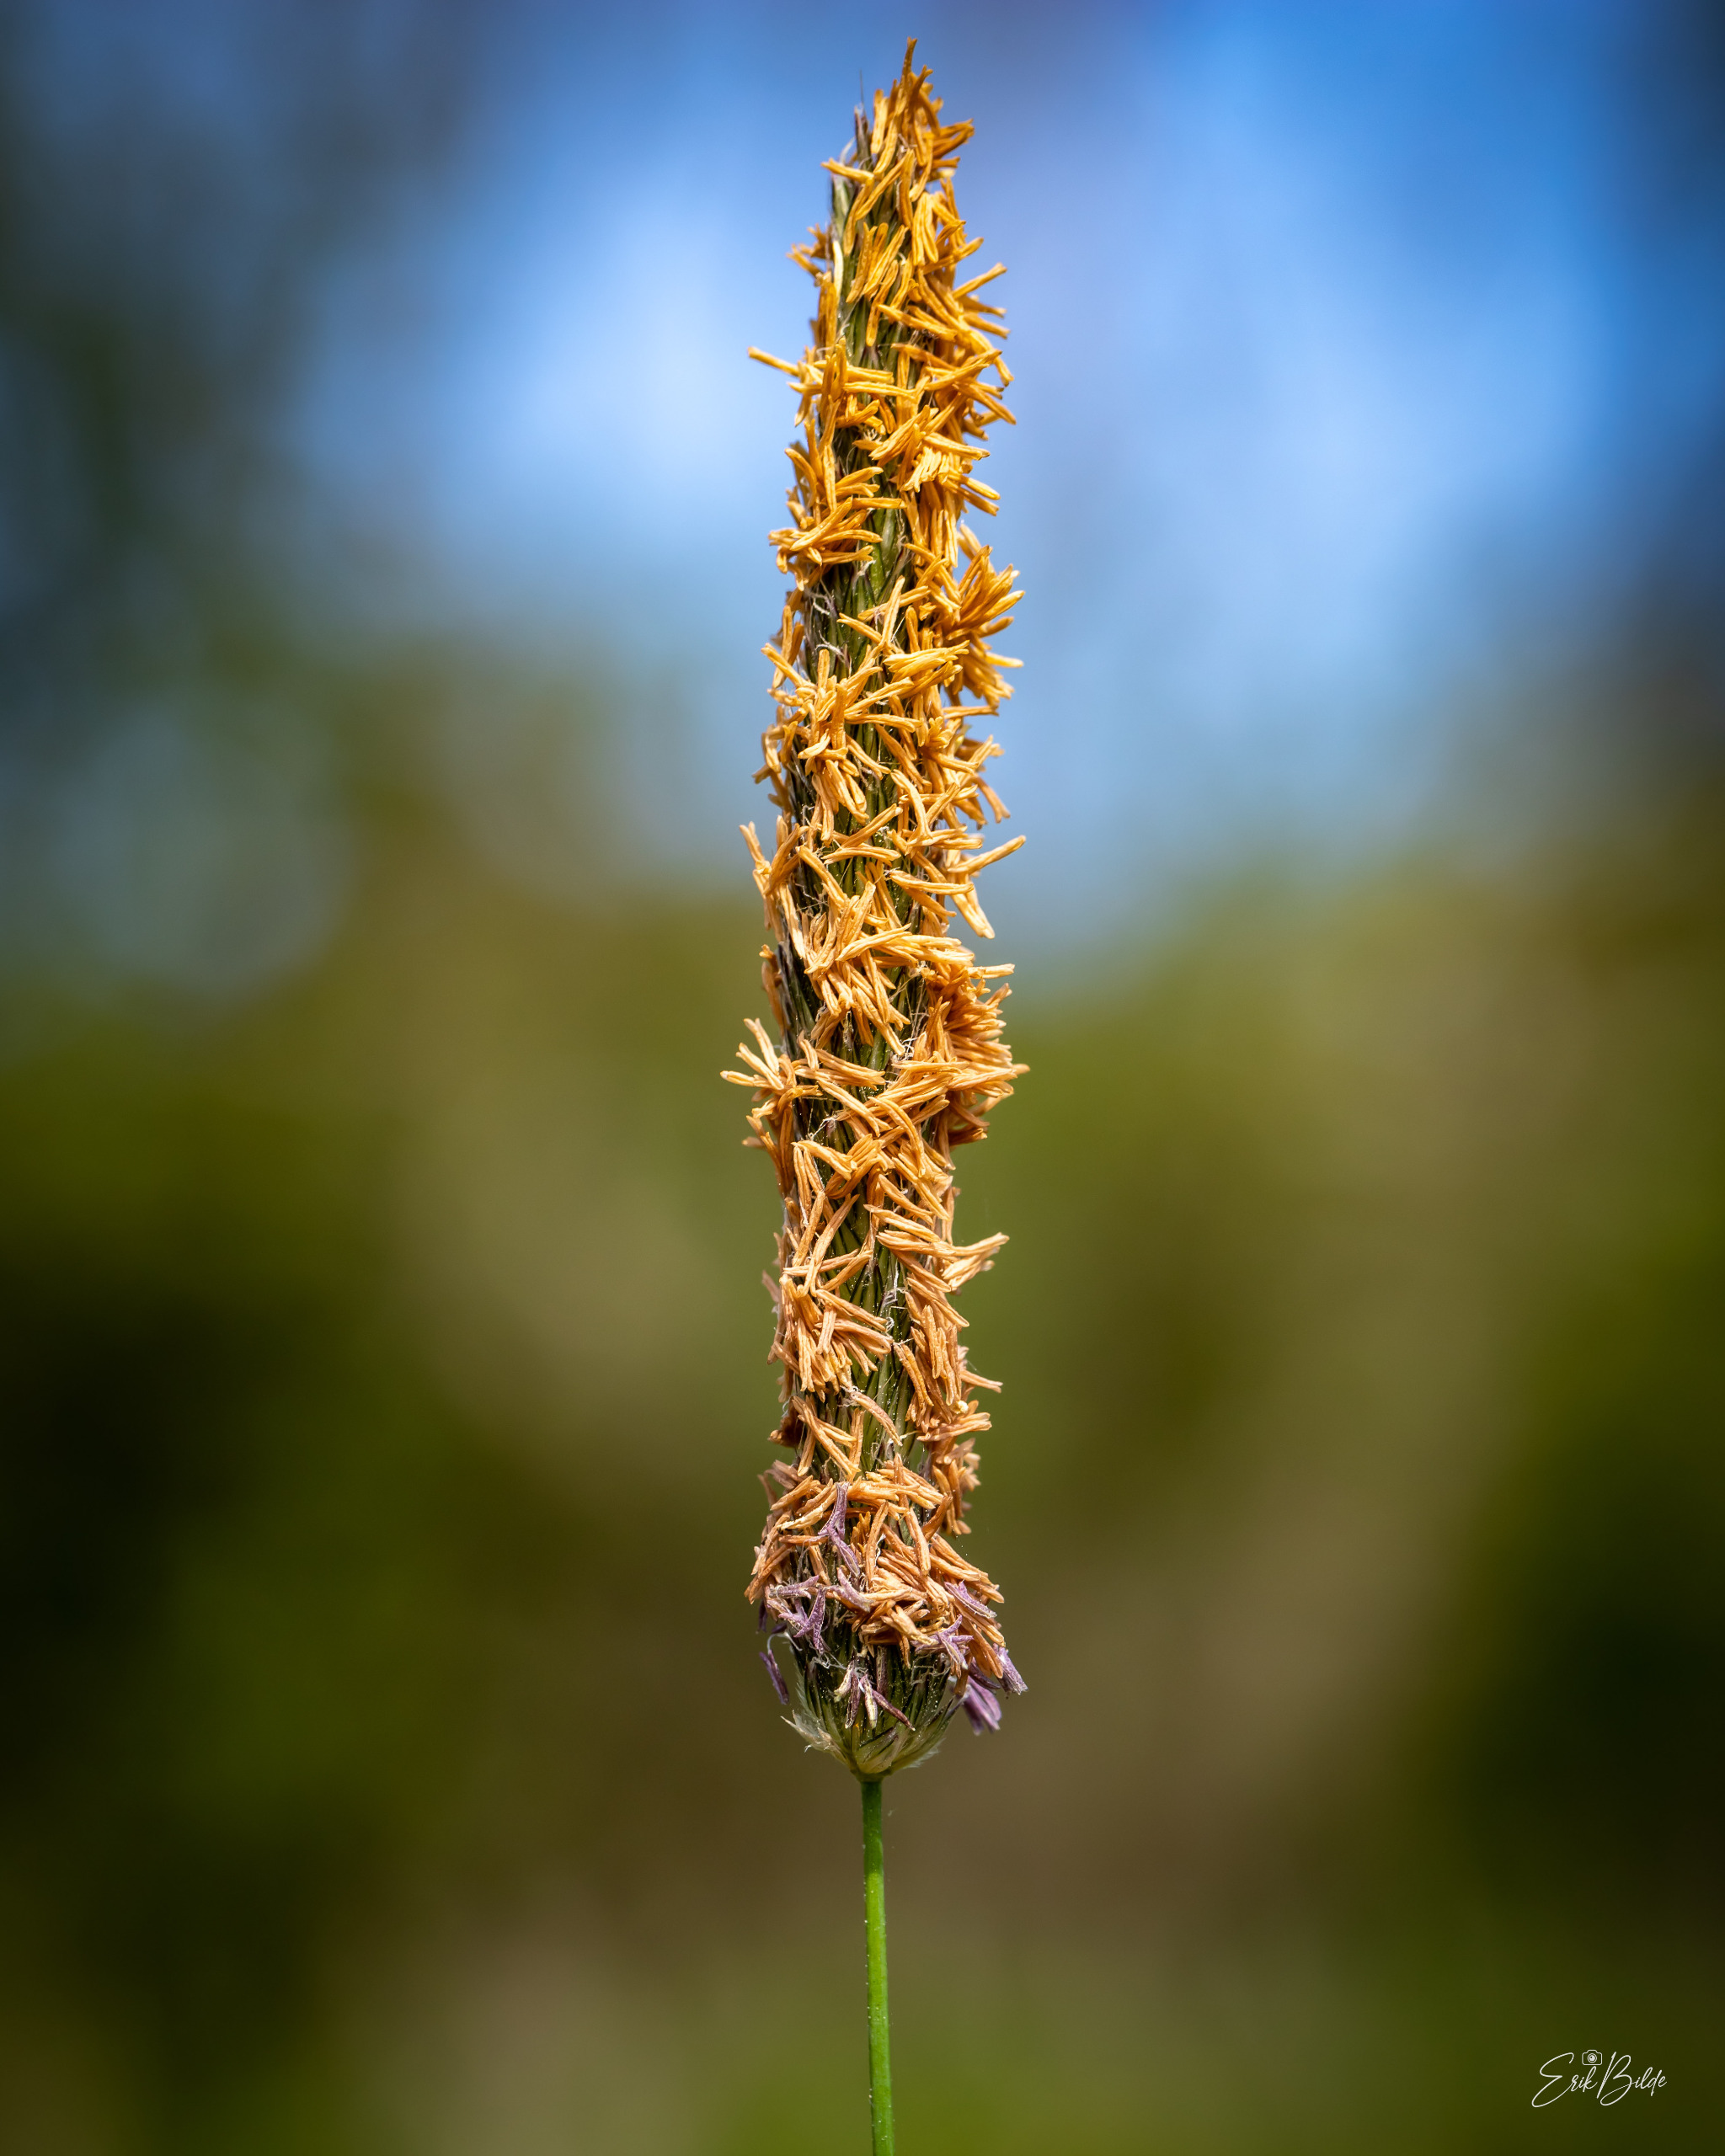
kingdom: Plantae
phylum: Tracheophyta
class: Liliopsida
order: Poales
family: Poaceae
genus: Alopecurus
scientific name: Alopecurus pratensis
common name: Eng-rævehale
